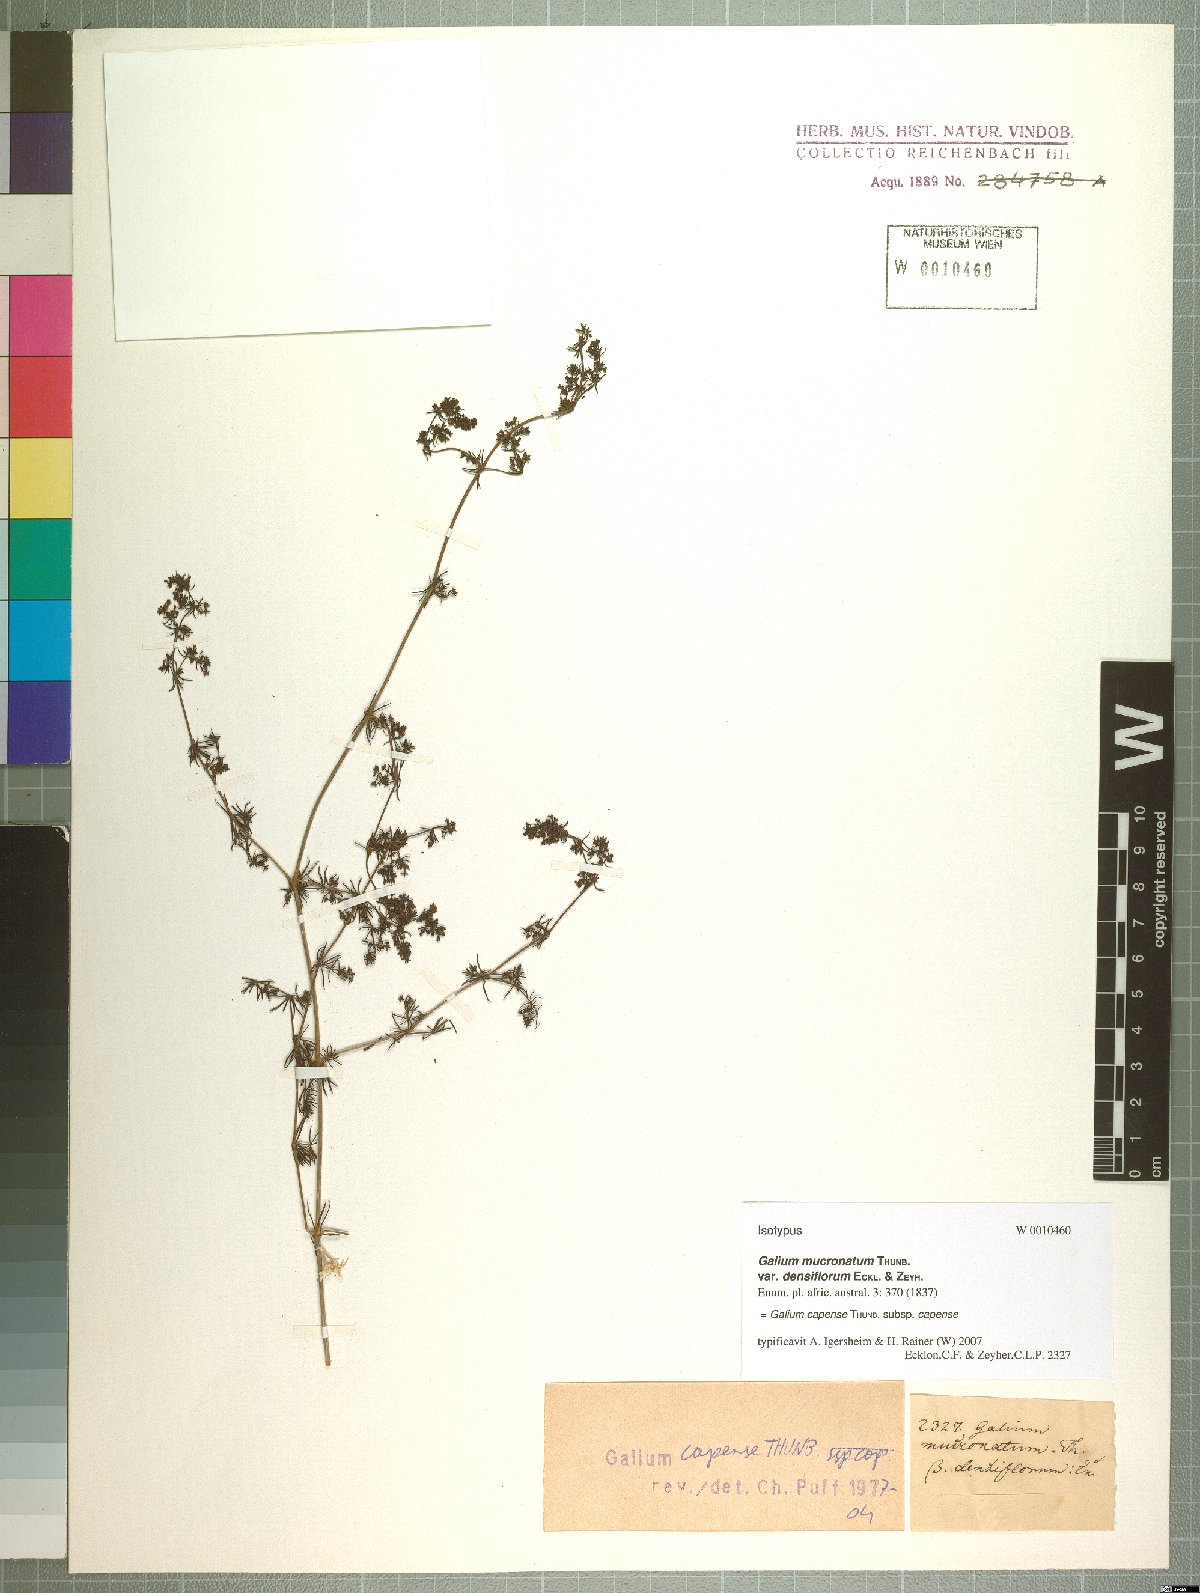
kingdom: Plantae
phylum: Tracheophyta
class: Magnoliopsida
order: Gentianales
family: Rubiaceae
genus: Galium
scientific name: Galium capense
